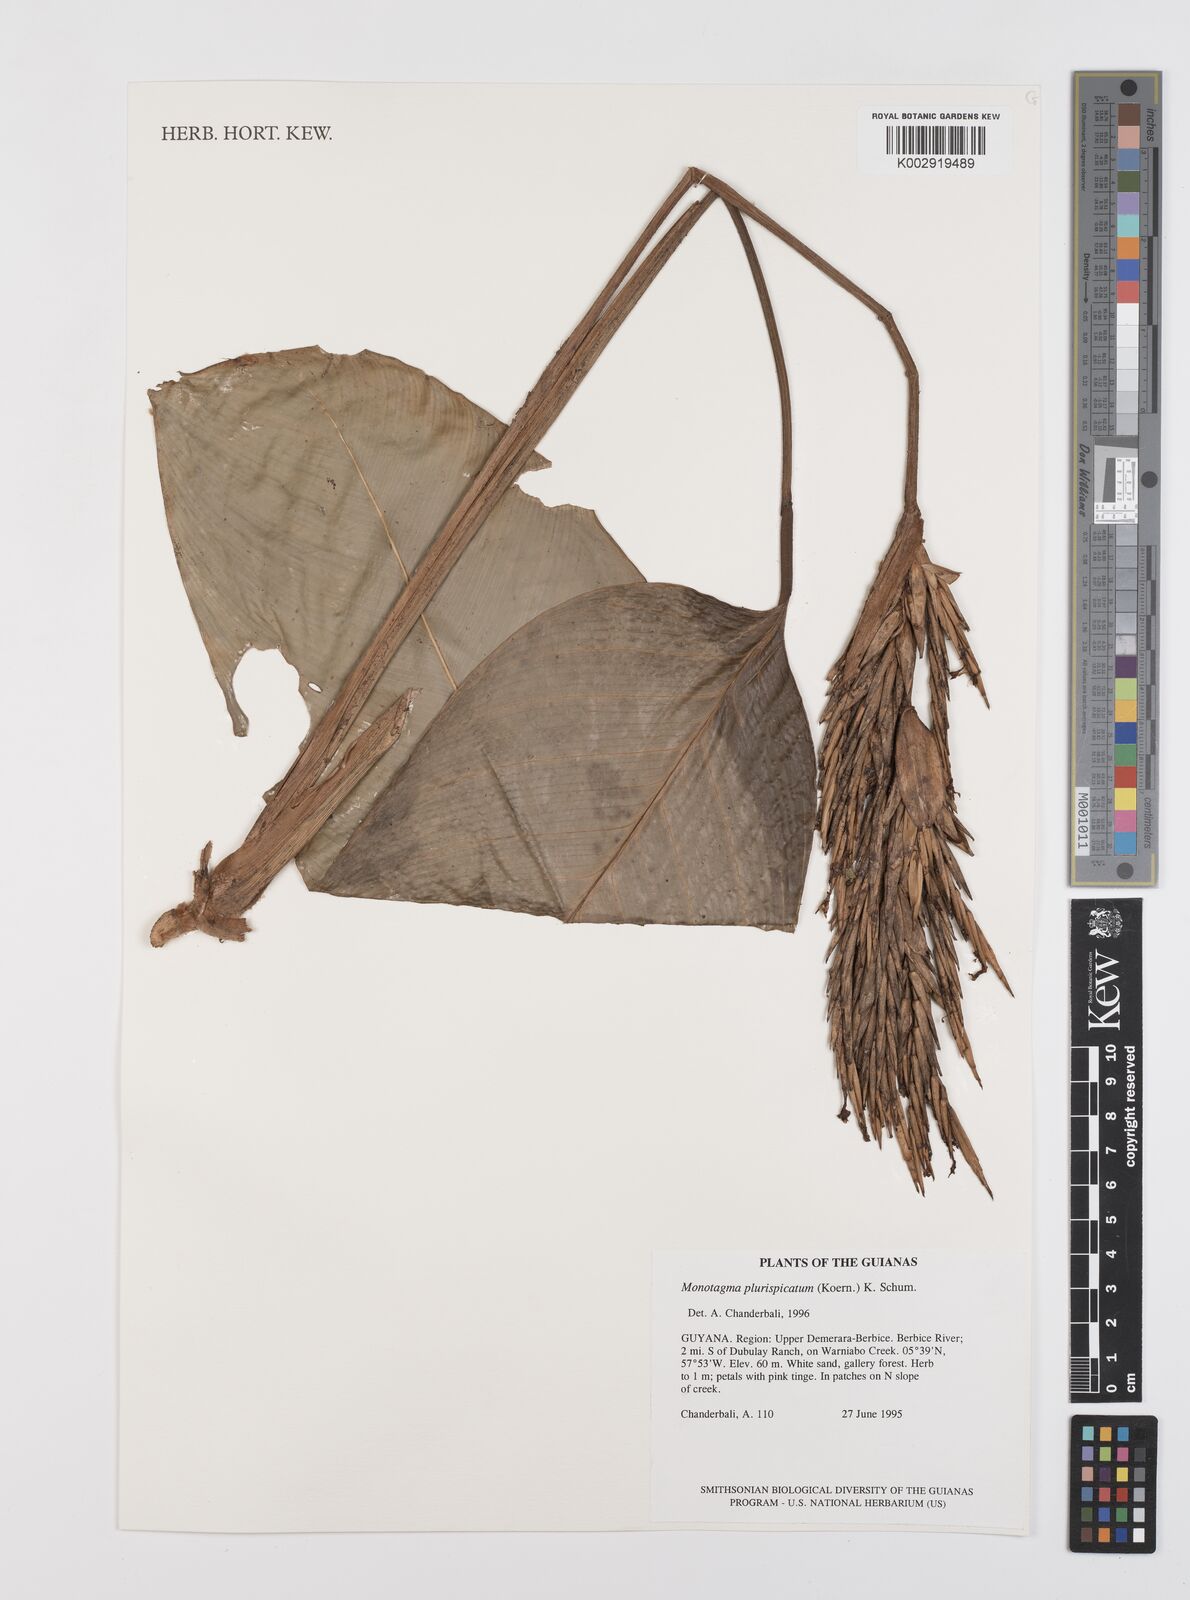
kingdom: Plantae
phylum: Tracheophyta
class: Liliopsida
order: Zingiberales
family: Marantaceae
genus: Monotagma
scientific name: Monotagma plurispicatum
